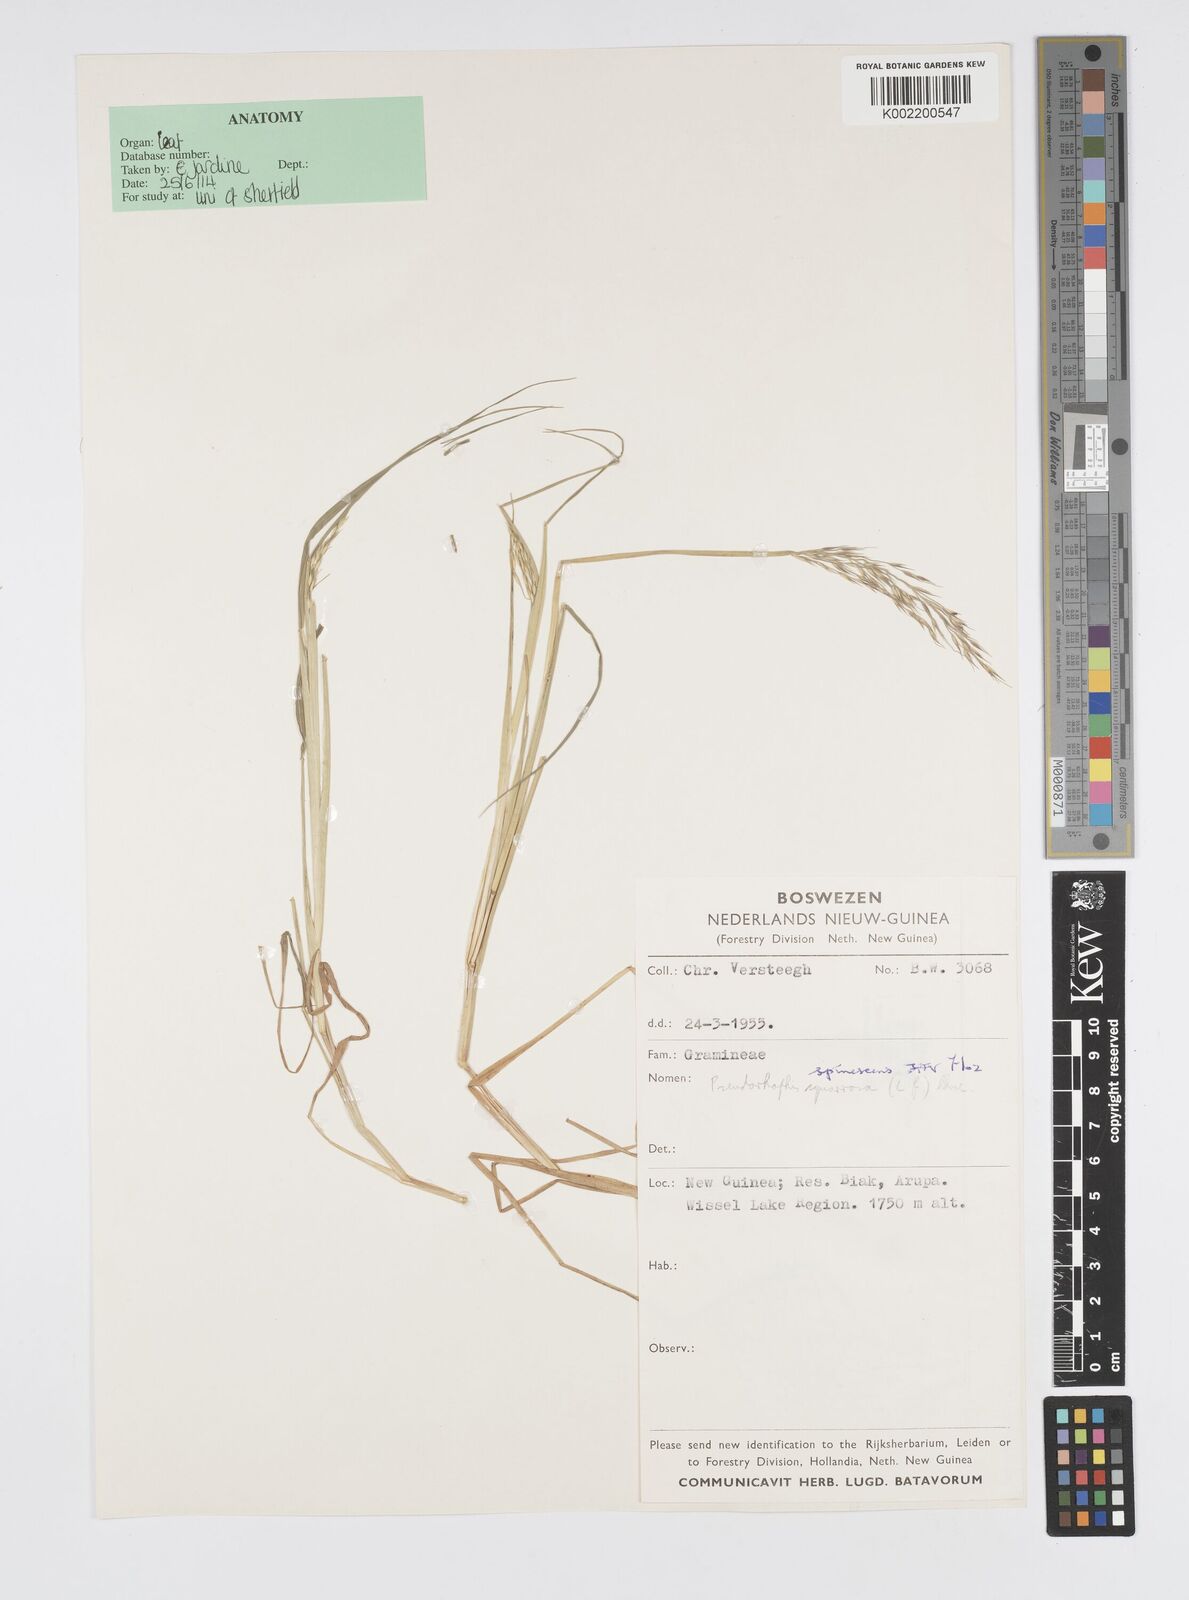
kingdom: Plantae
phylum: Tracheophyta
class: Liliopsida
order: Poales
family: Poaceae
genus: Pseudoraphis
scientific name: Pseudoraphis spinescens
